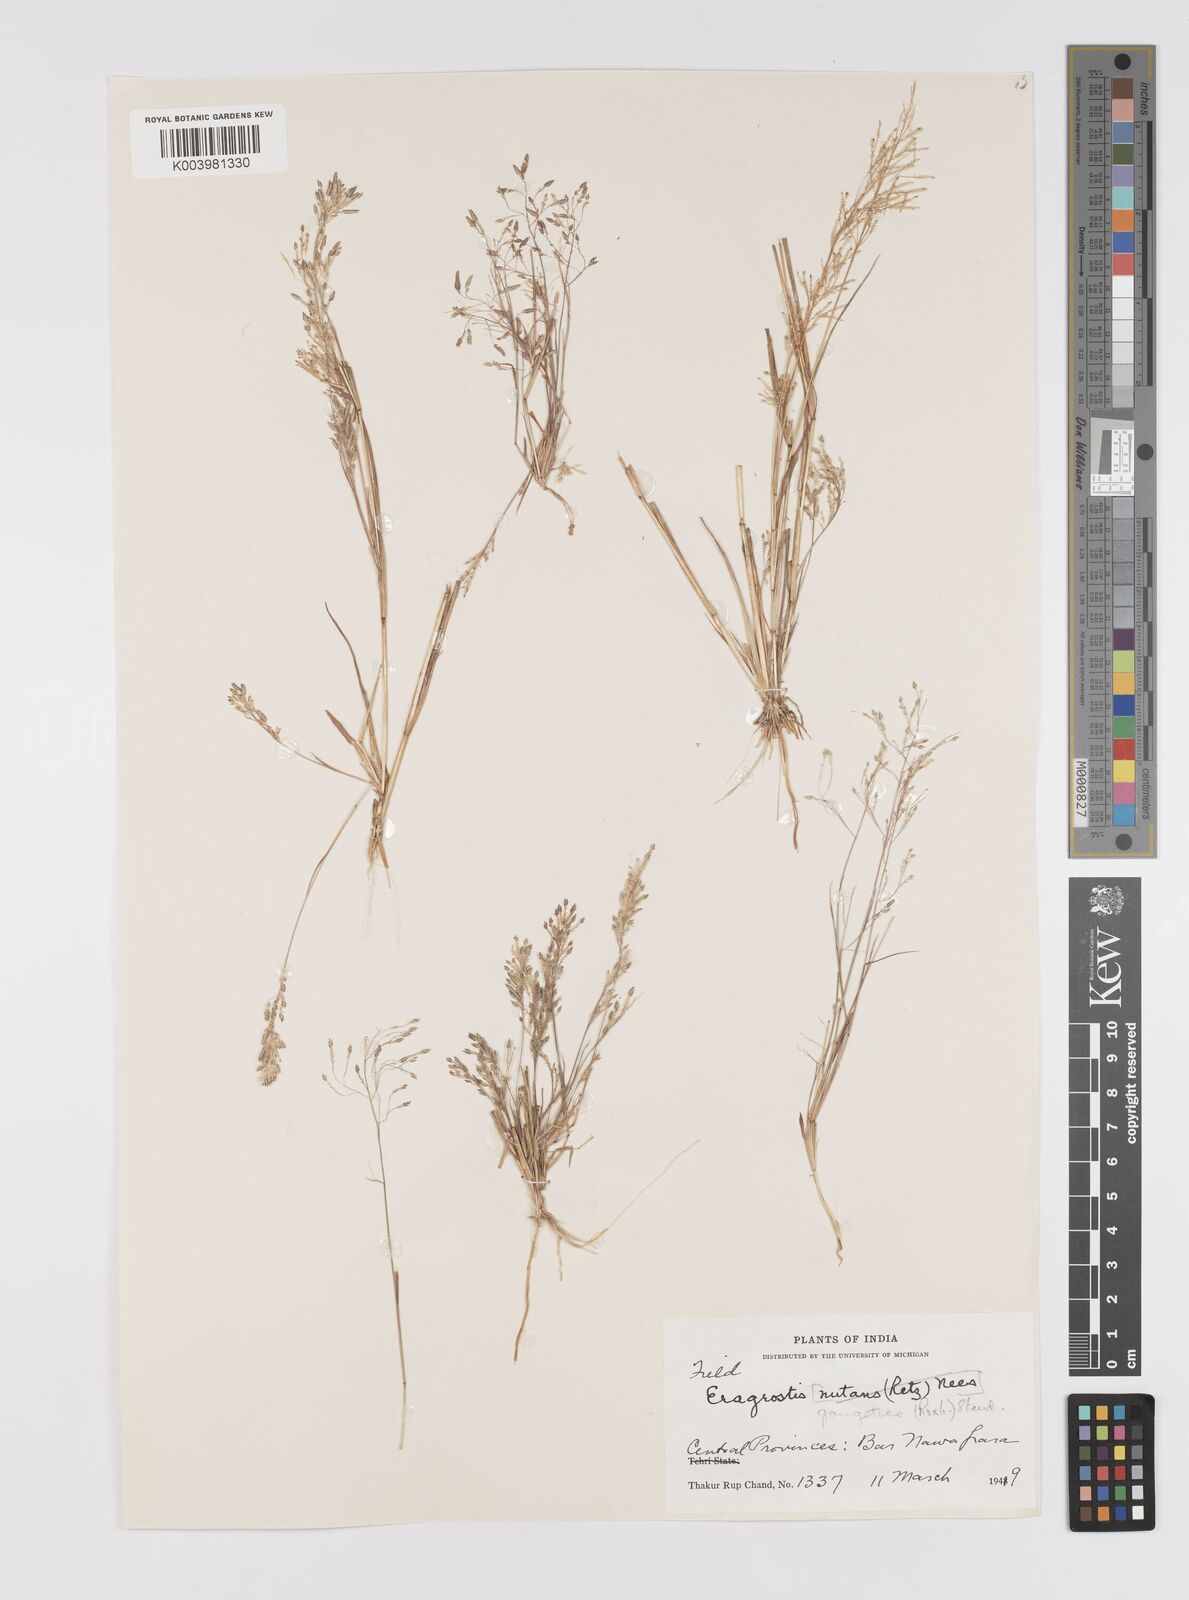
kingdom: Plantae
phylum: Tracheophyta
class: Liliopsida
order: Poales
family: Poaceae
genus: Eragrostis
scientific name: Eragrostis gangetica
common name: Slimflower lovegrass
